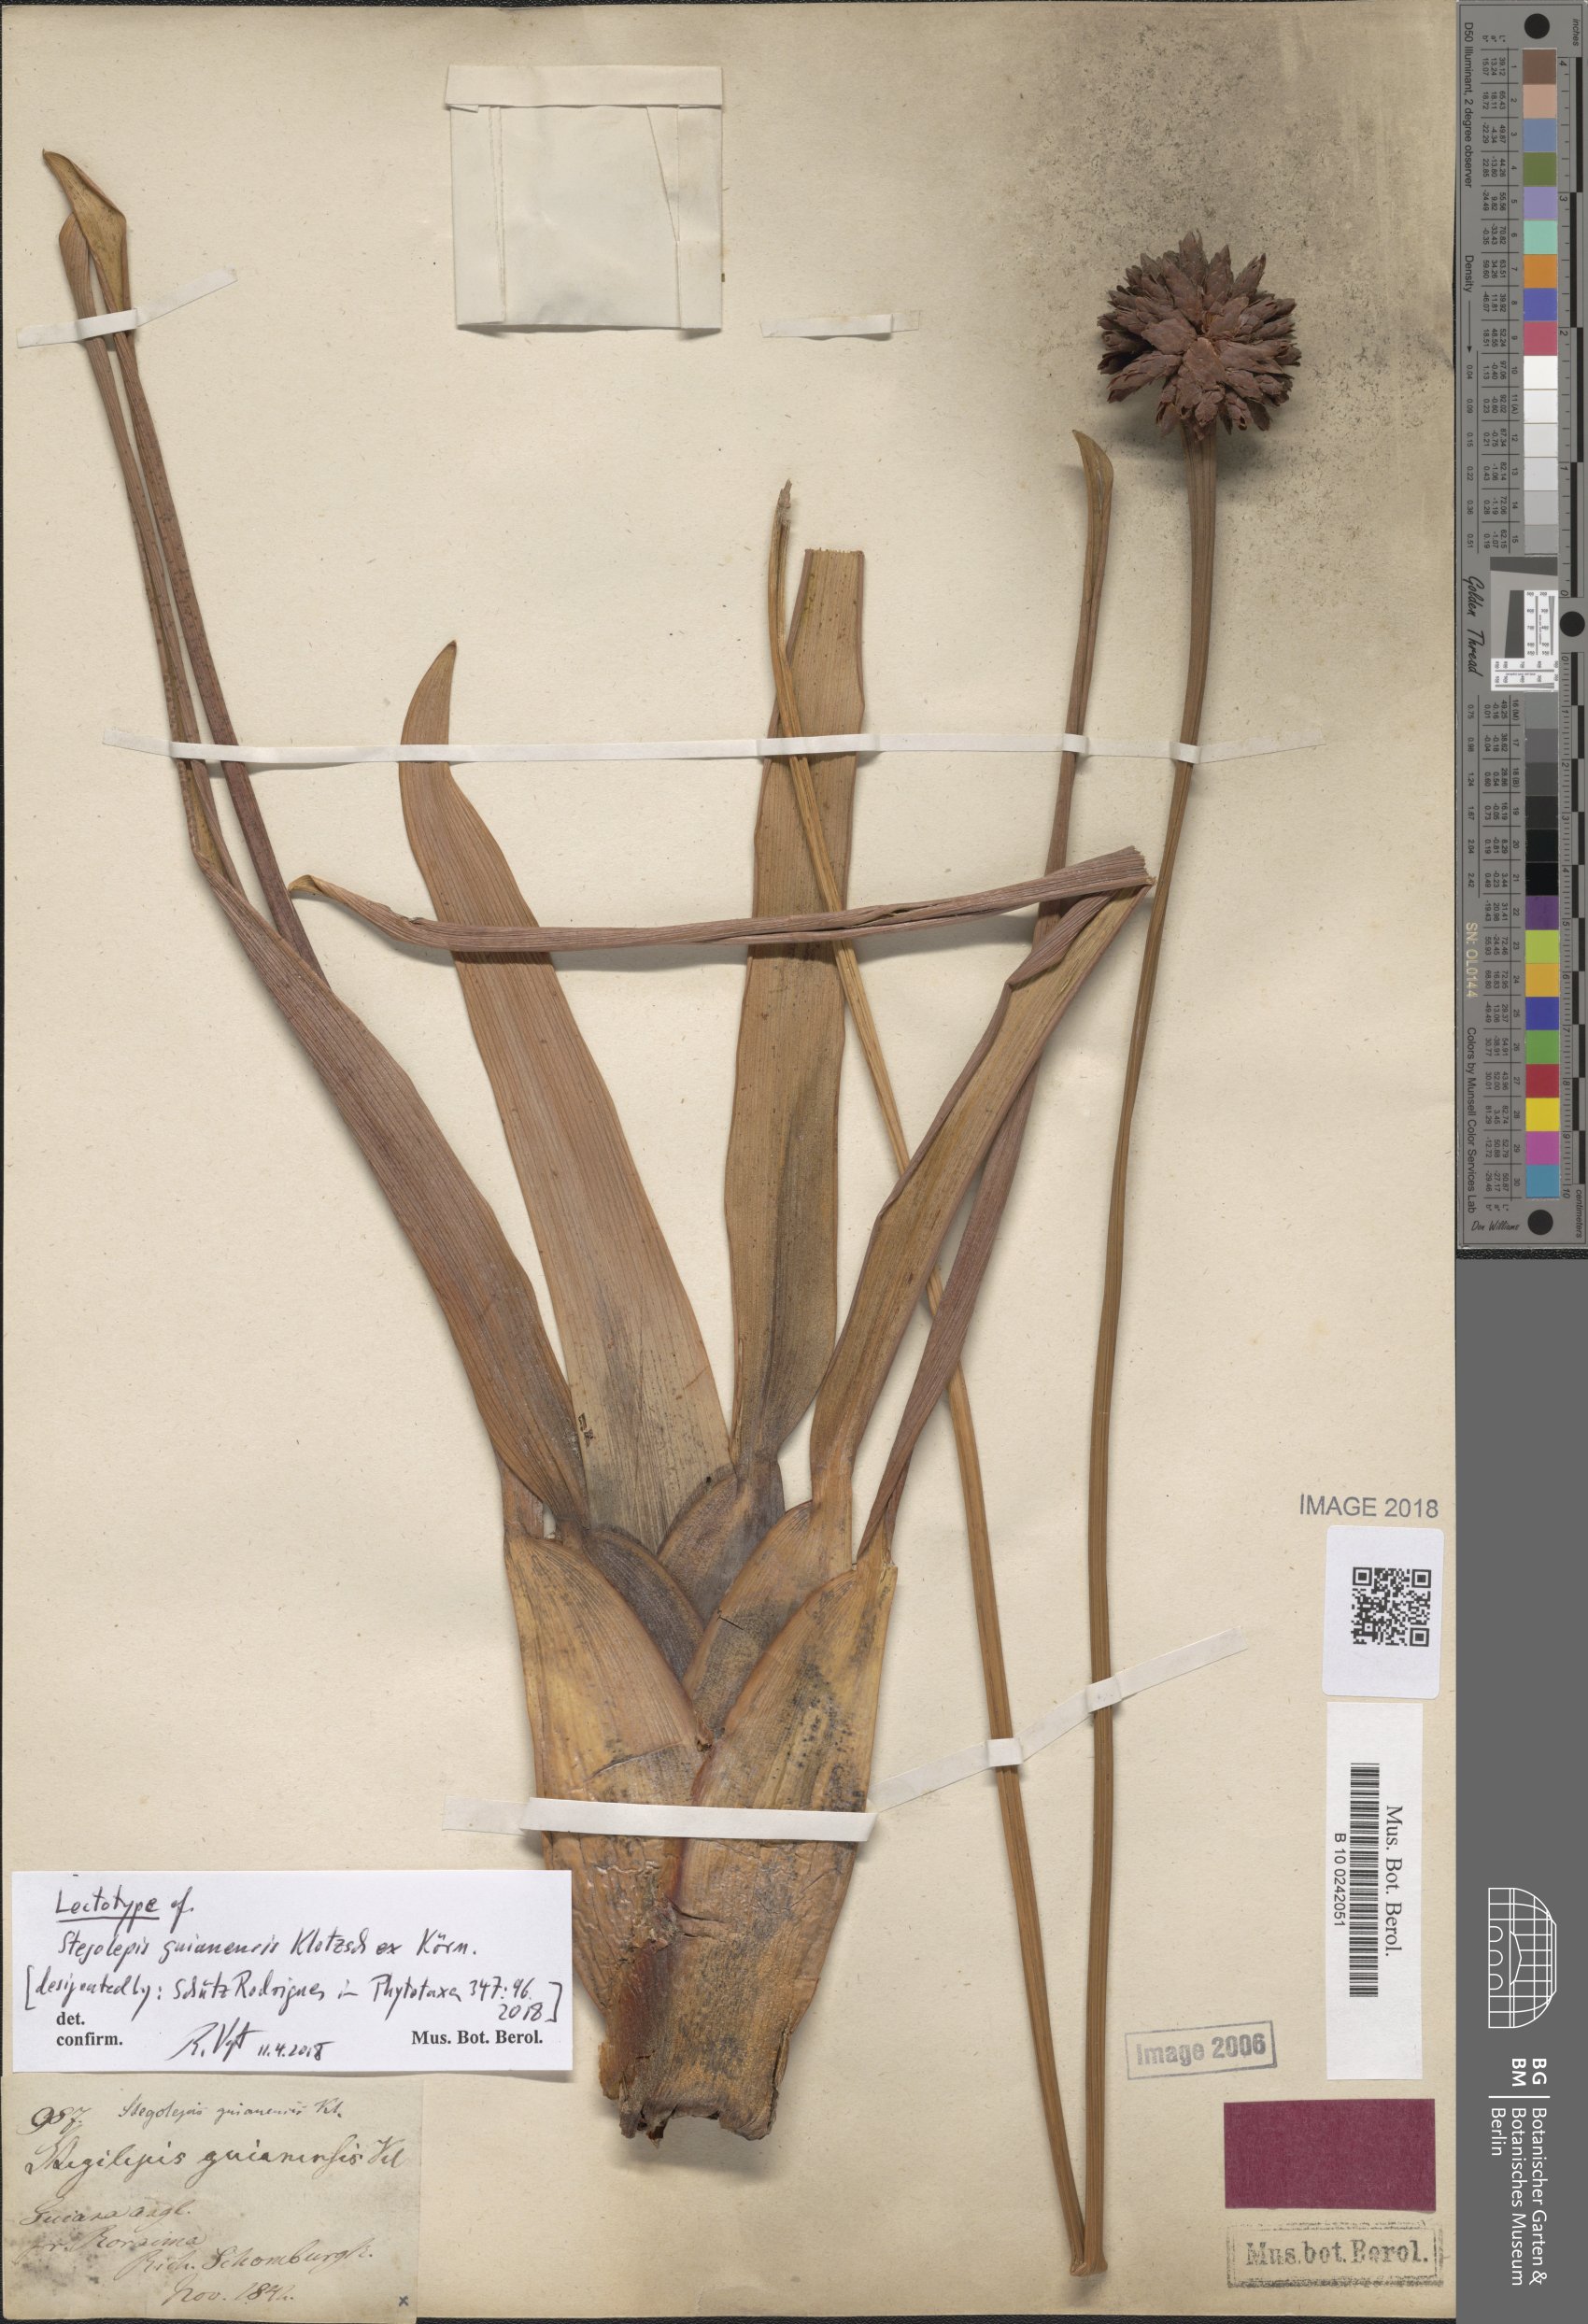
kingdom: Plantae
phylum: Tracheophyta
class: Liliopsida
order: Poales
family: Rapateaceae
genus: Stegolepis
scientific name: Stegolepis guianensis
